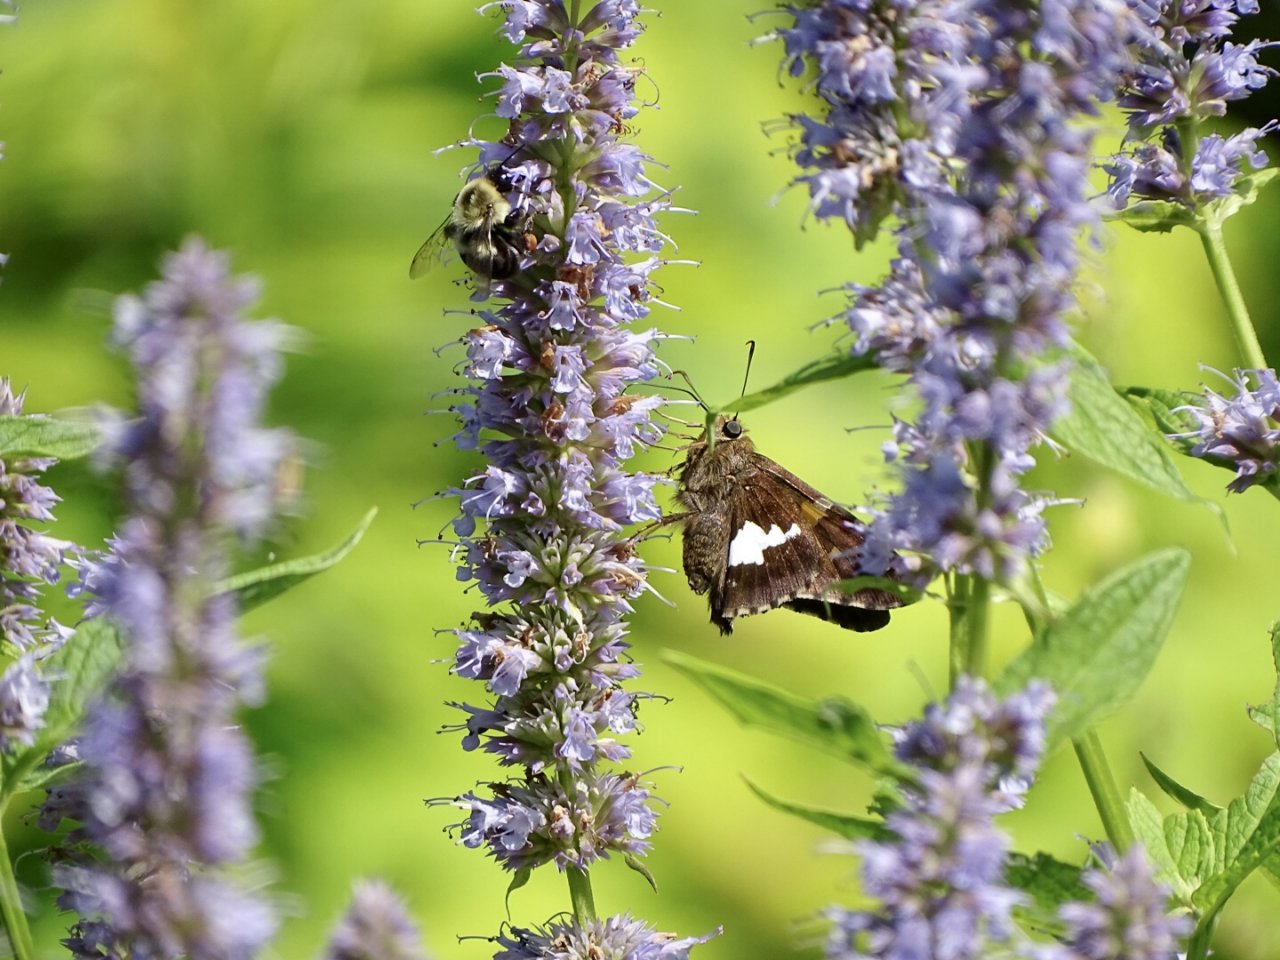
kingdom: Animalia
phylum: Arthropoda
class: Insecta
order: Lepidoptera
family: Hesperiidae
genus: Epargyreus
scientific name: Epargyreus clarus
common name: Silver-spotted Skipper
